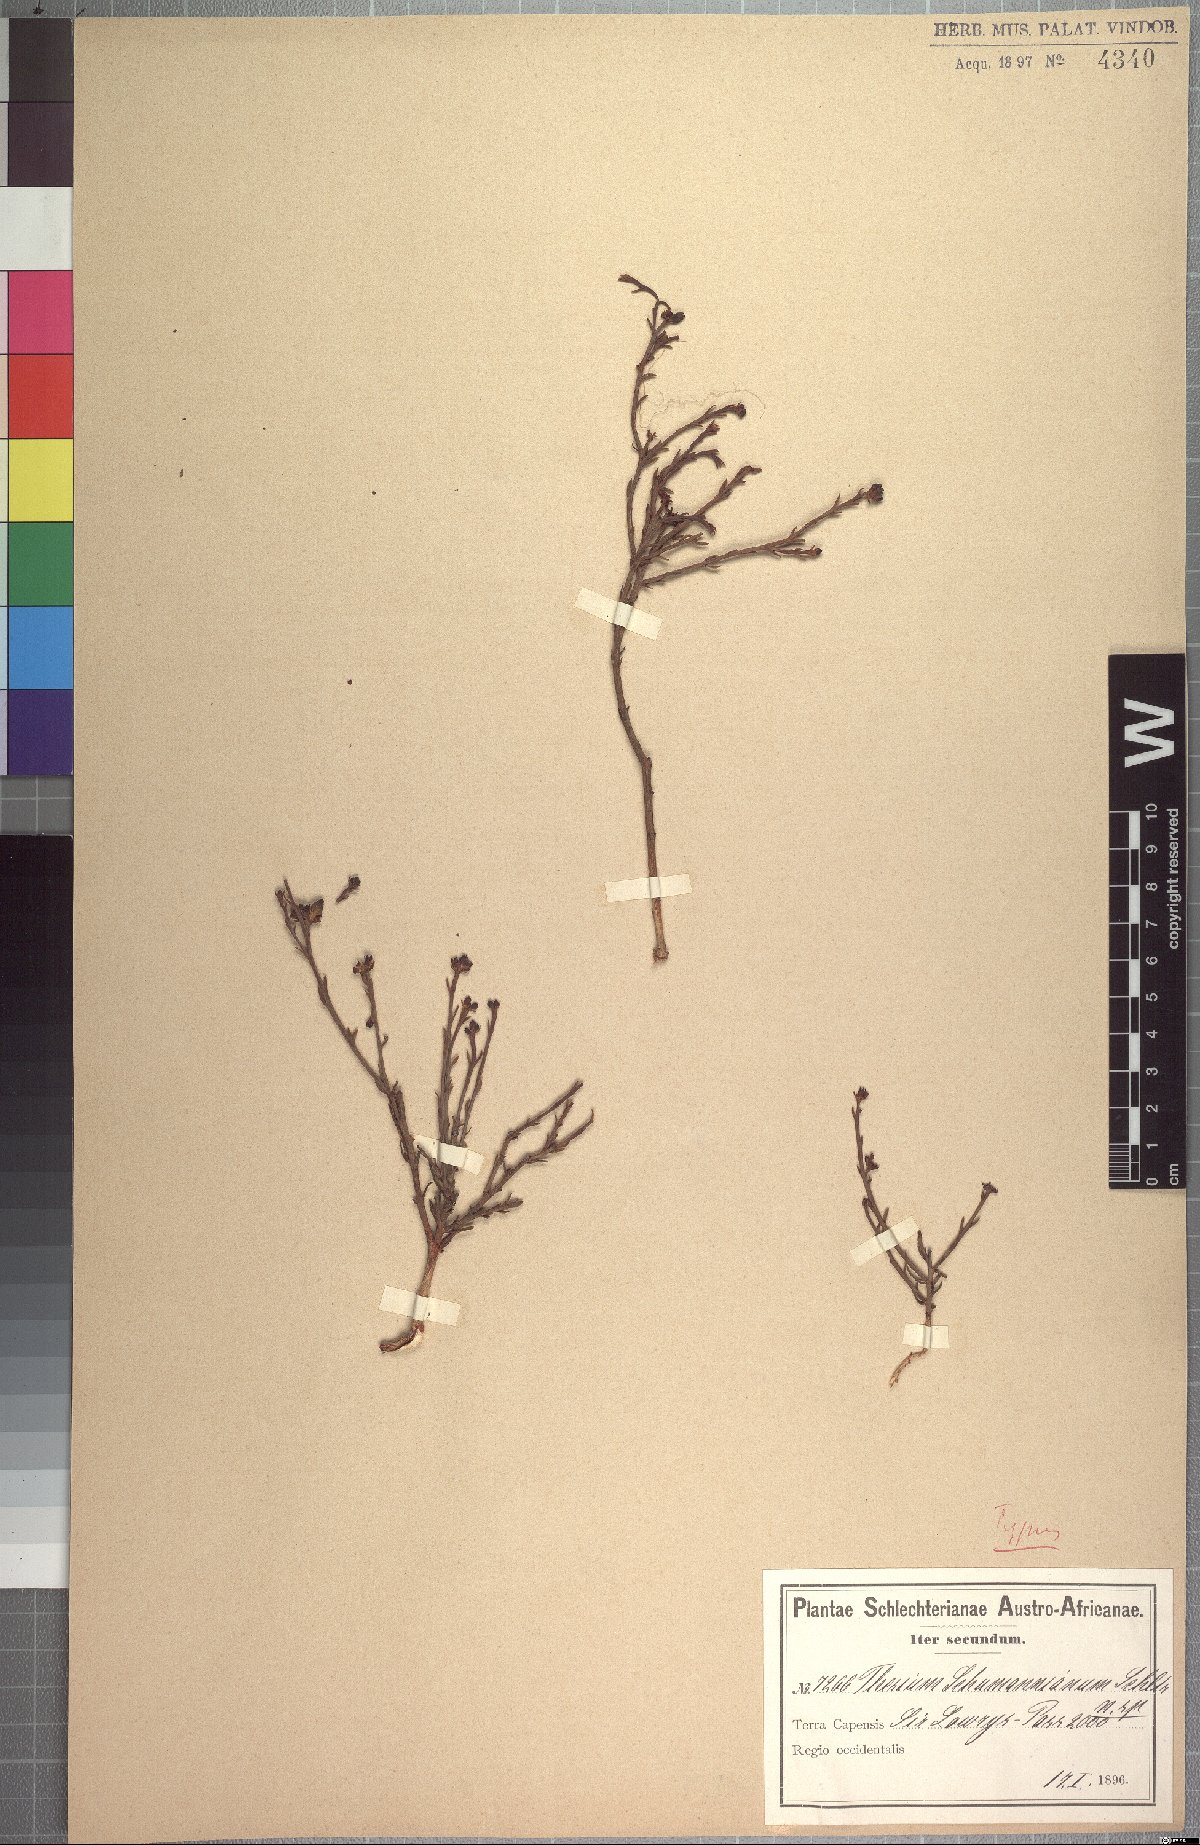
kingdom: Plantae
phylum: Tracheophyta
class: Magnoliopsida
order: Santalales
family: Thesiaceae
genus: Thesium
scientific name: Thesium schumannianum
